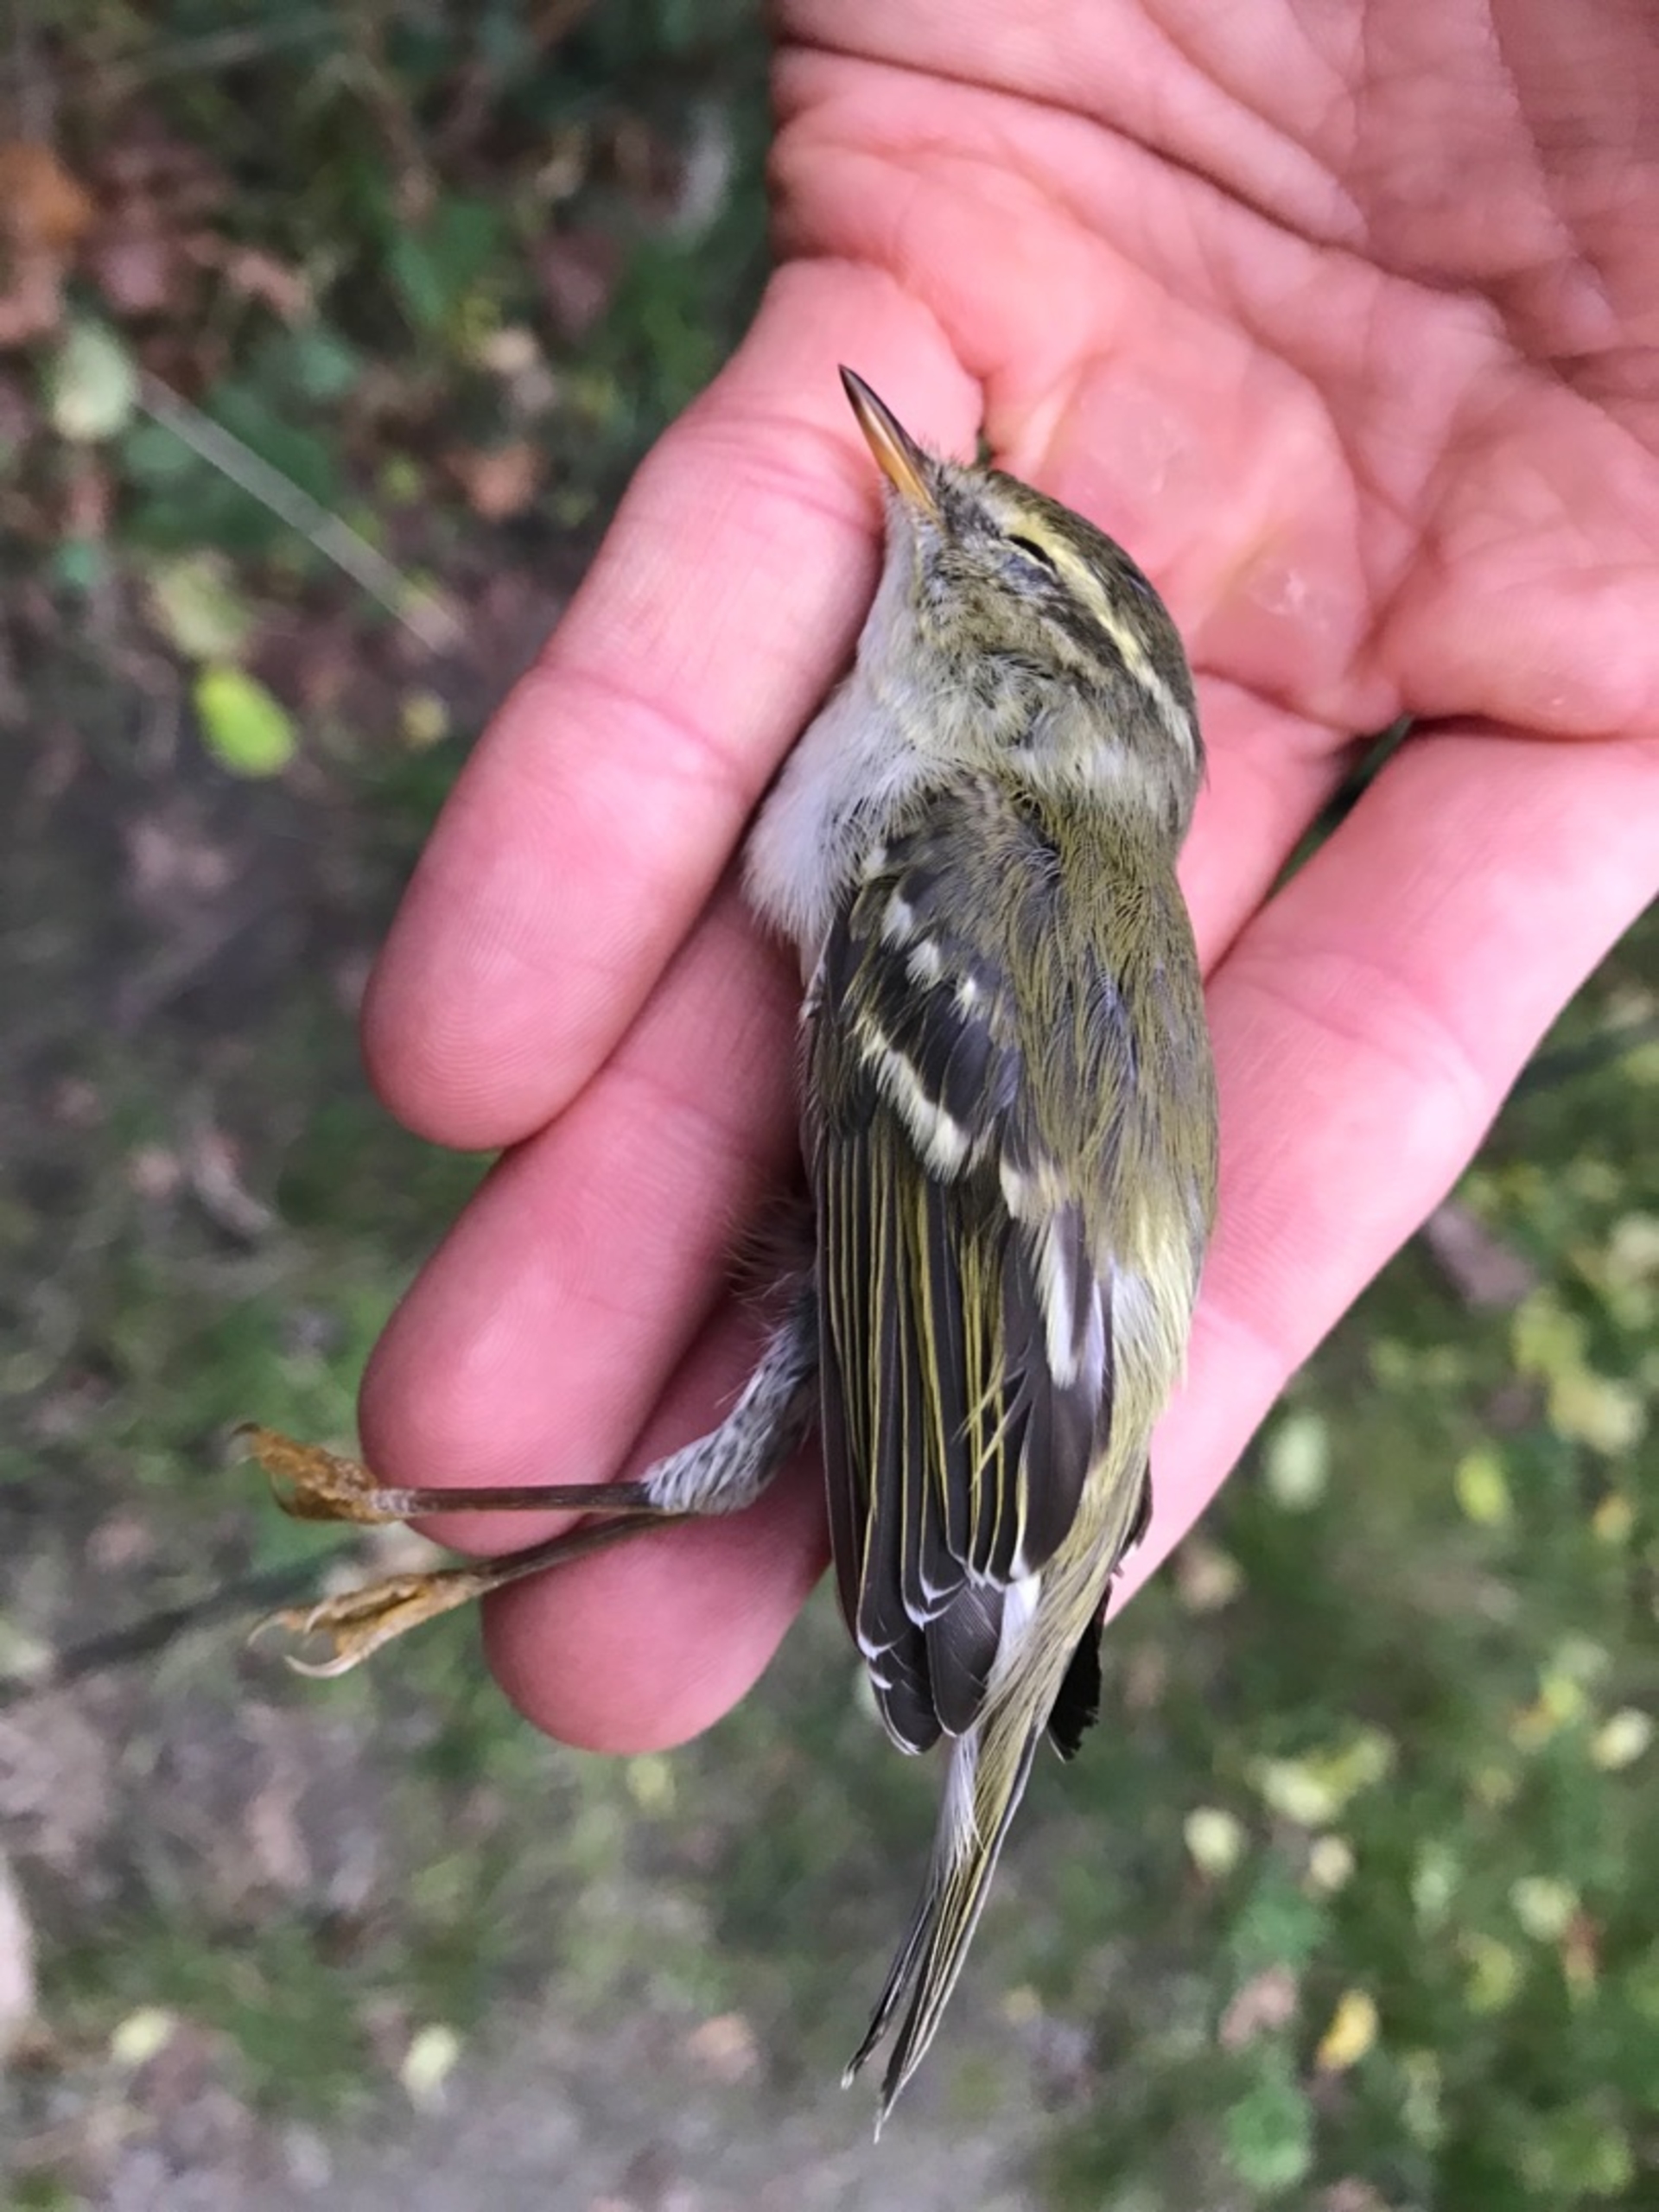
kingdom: Animalia
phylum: Chordata
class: Aves
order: Passeriformes
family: Phylloscopidae
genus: Phylloscopus
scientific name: Phylloscopus inornatus
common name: Hvidbrynet løvsanger
